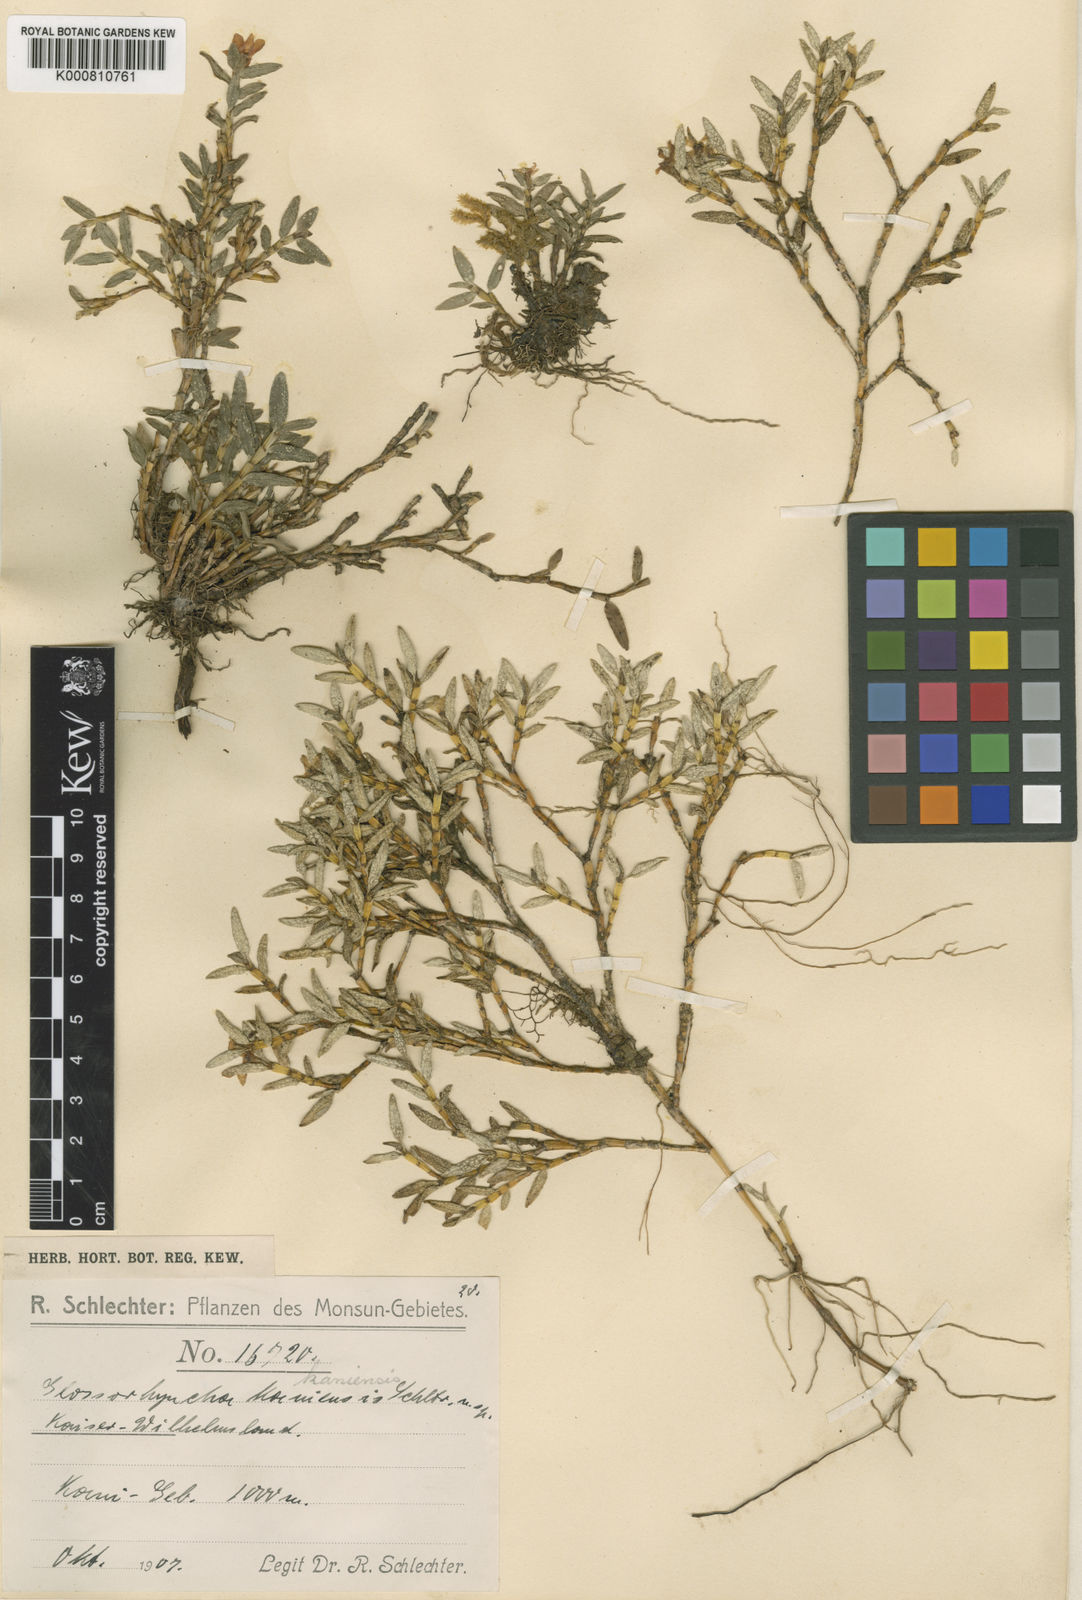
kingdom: Plantae
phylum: Tracheophyta
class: Liliopsida
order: Asparagales
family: Orchidaceae
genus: Glomera
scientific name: Glomera latipetala
